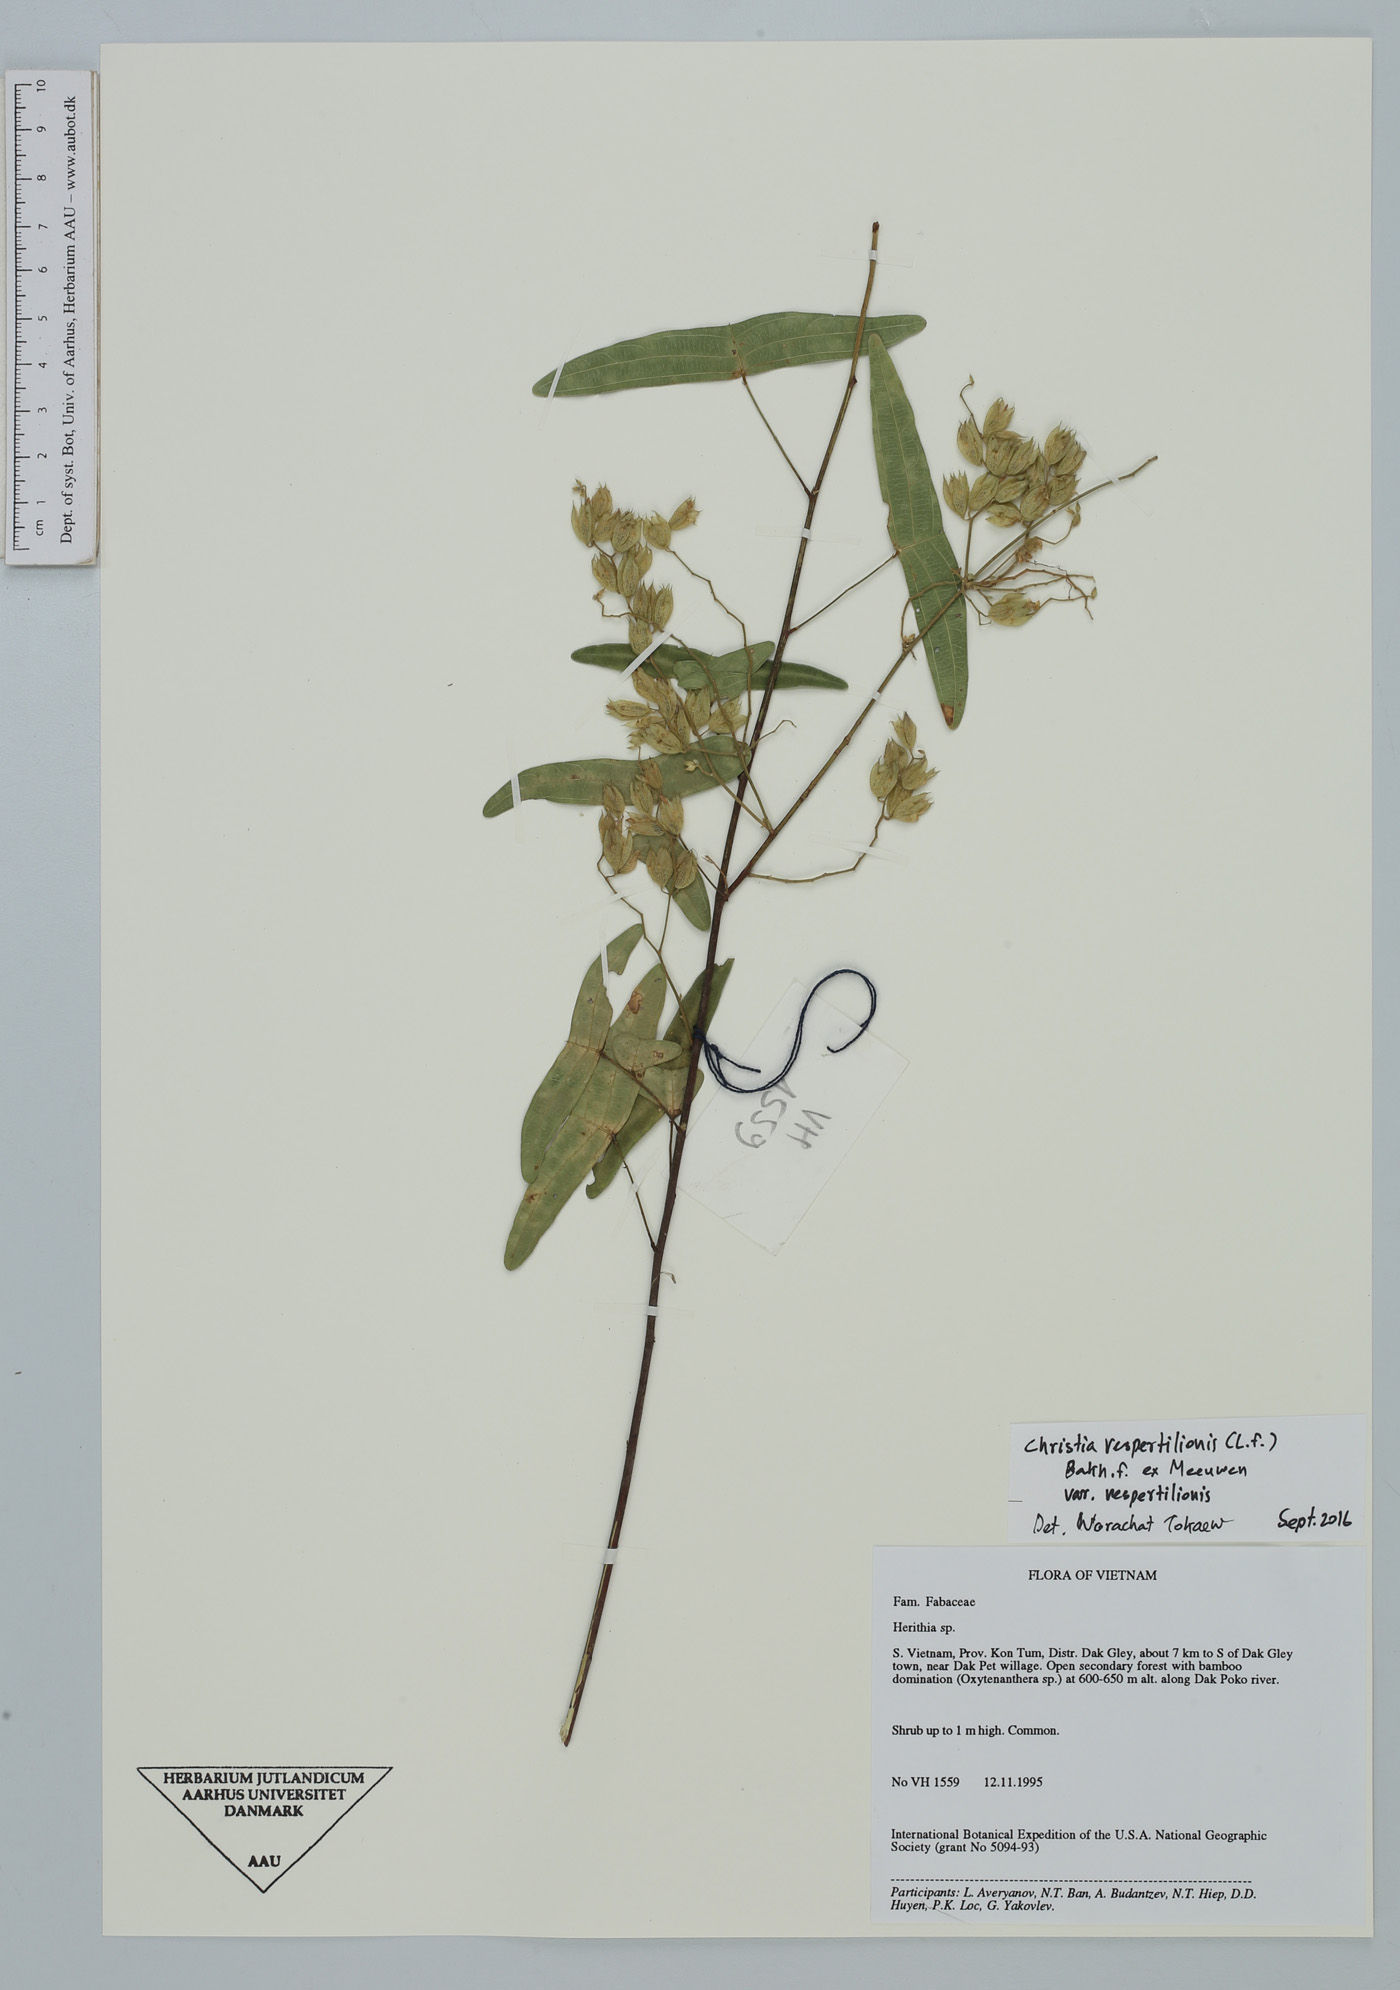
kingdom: Plantae
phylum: Tracheophyta
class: Magnoliopsida
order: Fabales
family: Fabaceae
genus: Christia
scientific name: Christia vespertilionis
